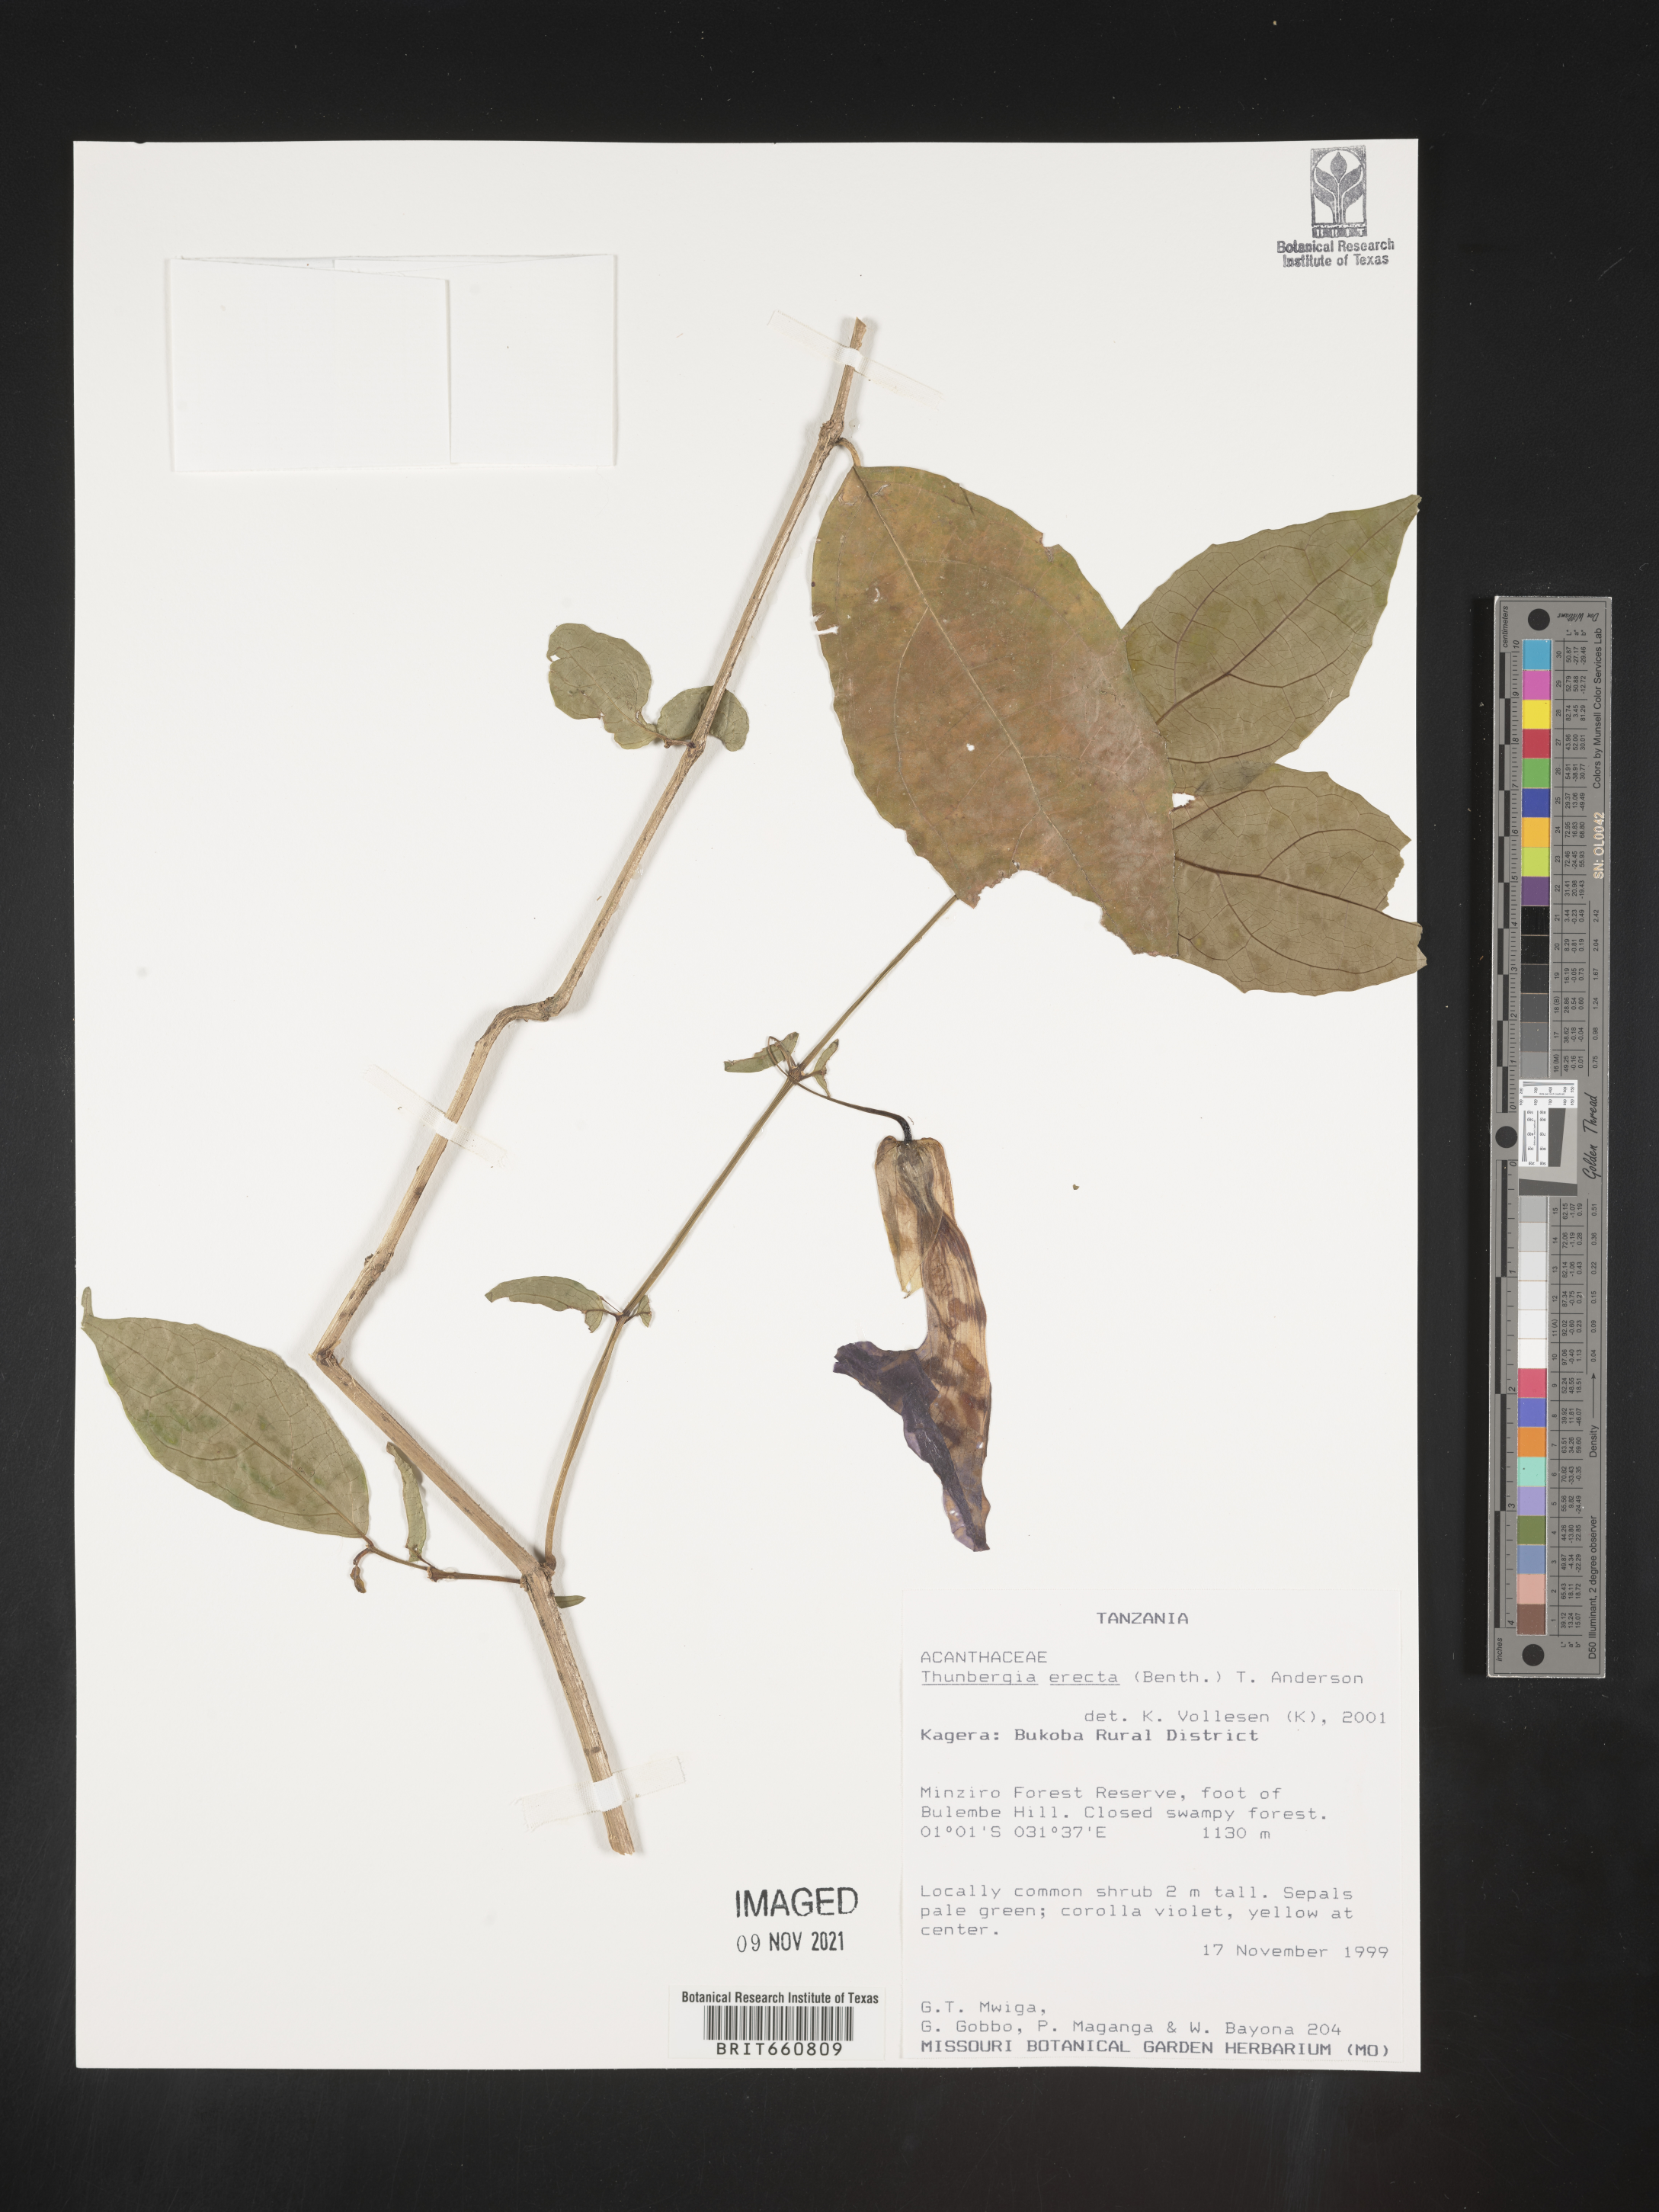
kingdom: Plantae
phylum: Tracheophyta
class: Magnoliopsida
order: Lamiales
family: Acanthaceae
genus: Thunbergia
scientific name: Thunbergia
